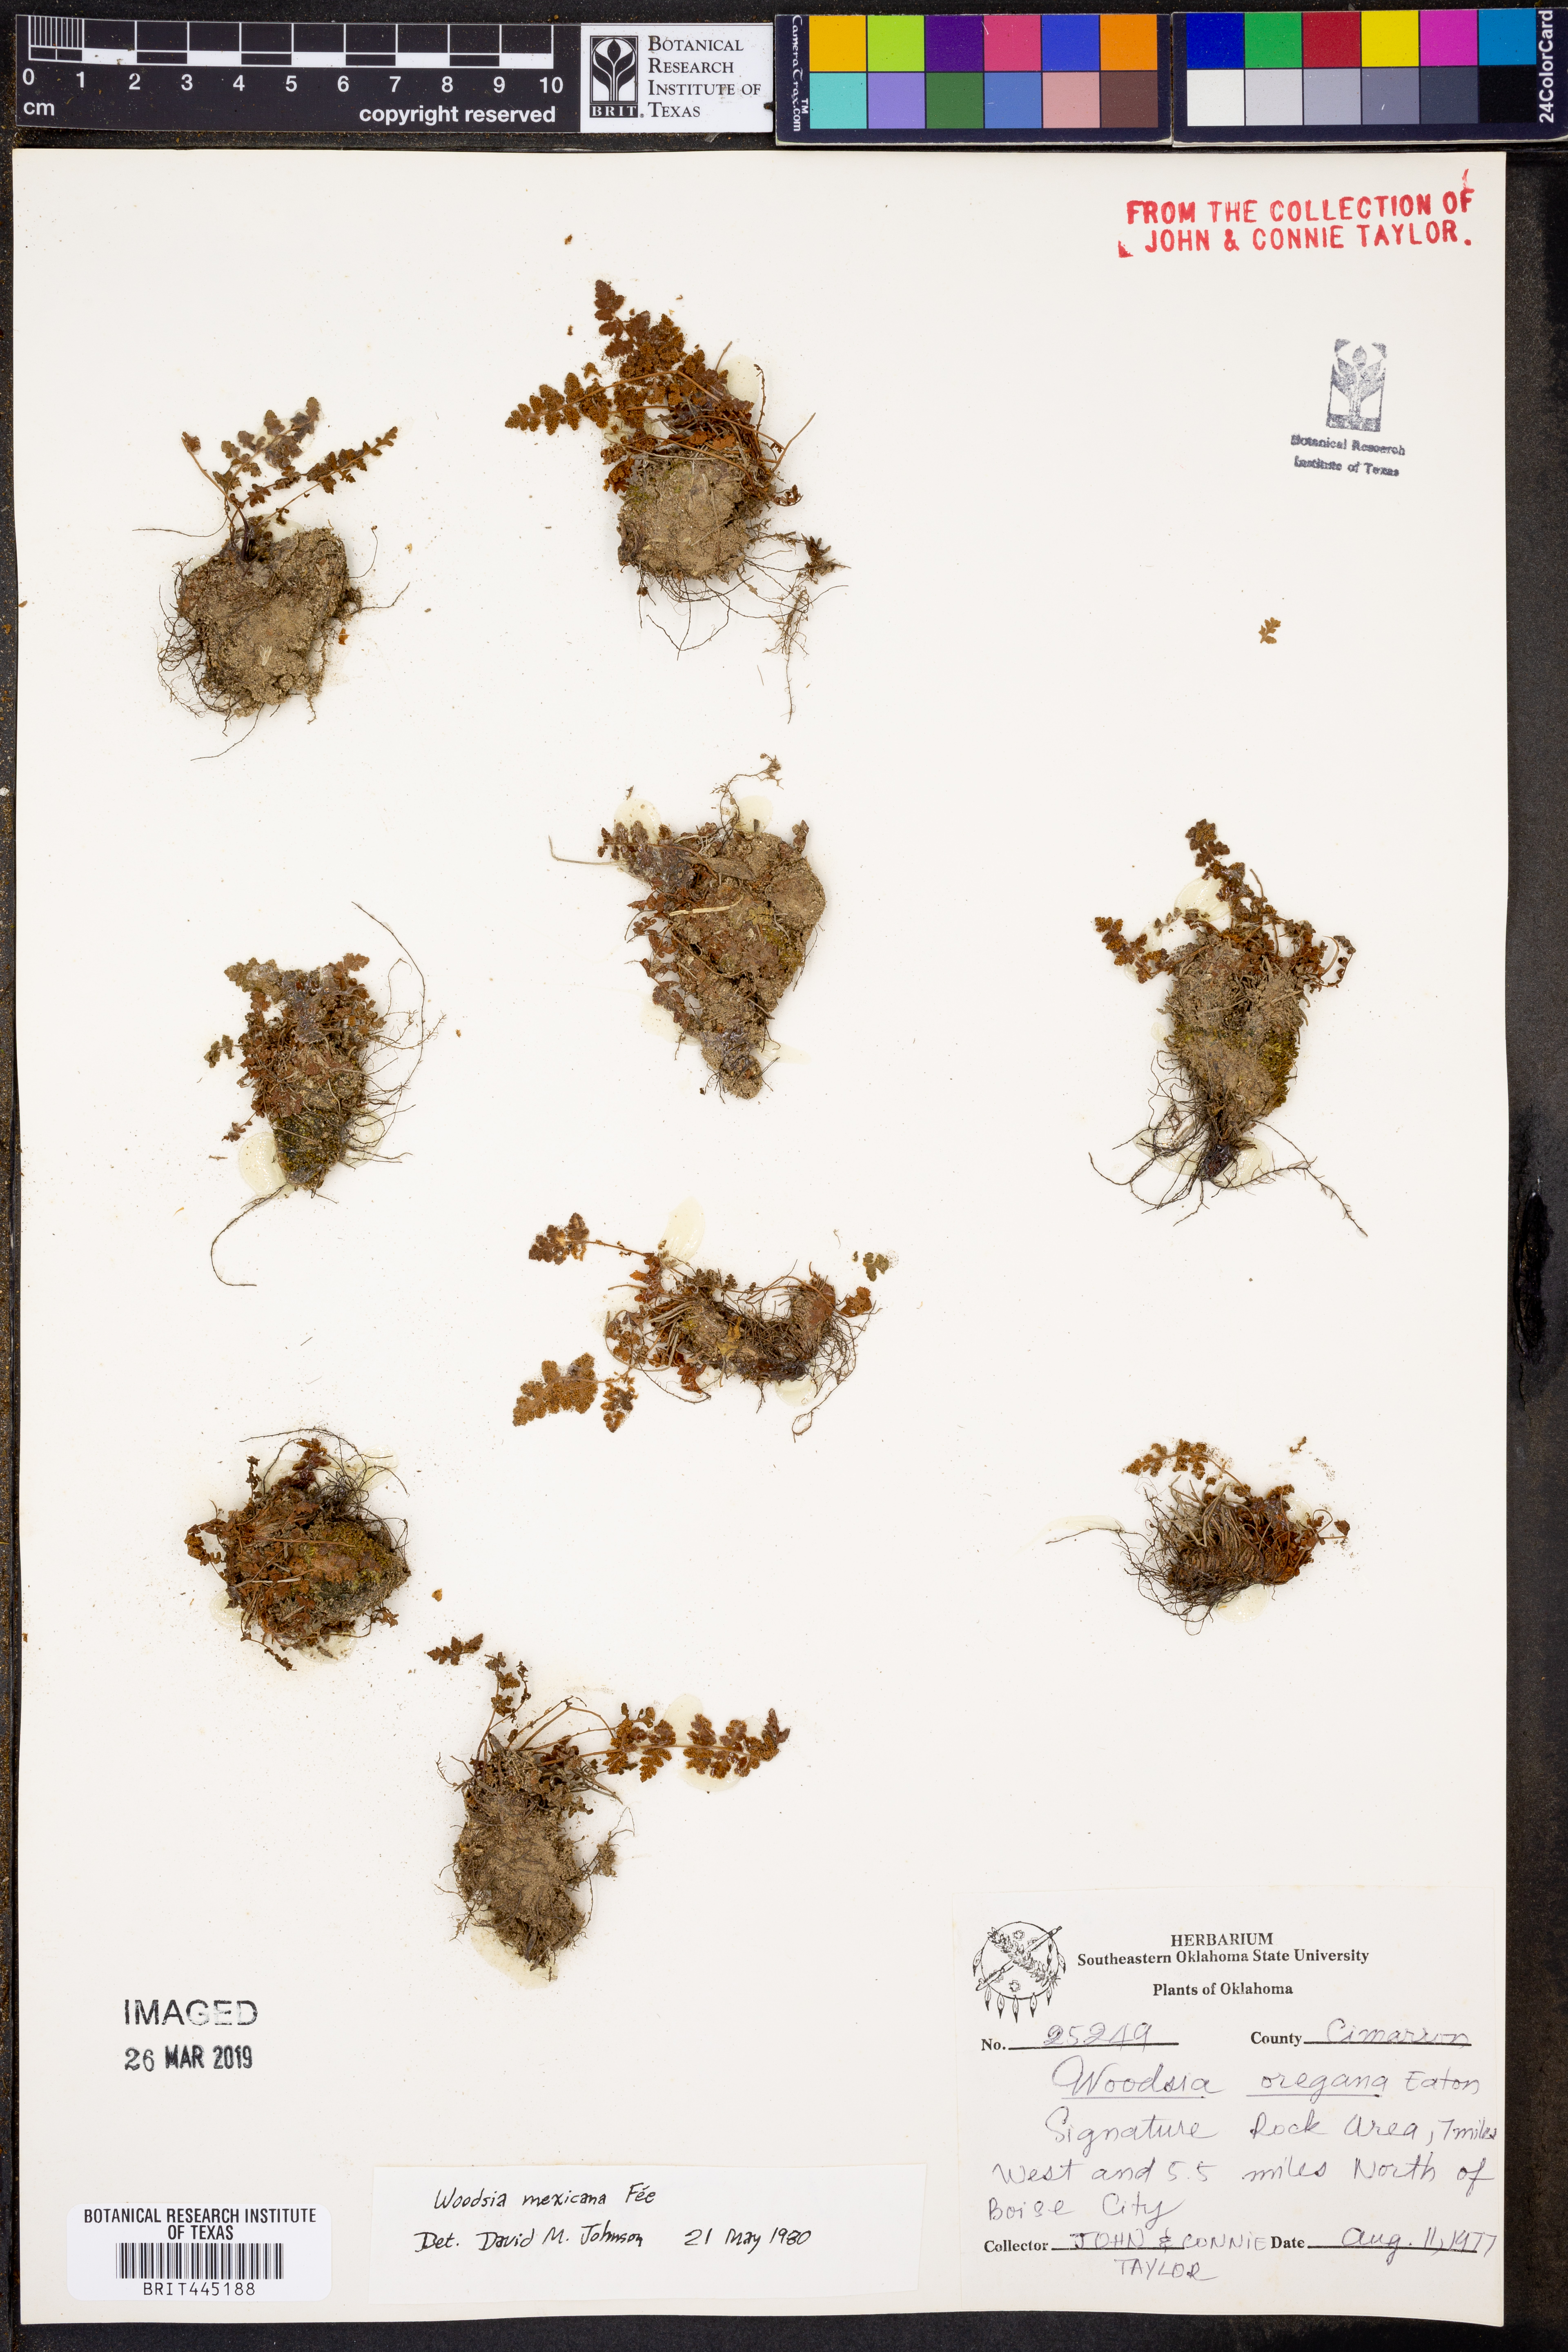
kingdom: Plantae
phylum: Tracheophyta
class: Polypodiopsida
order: Polypodiales
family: Woodsiaceae
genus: Physematium
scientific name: Physematium mexicanum
